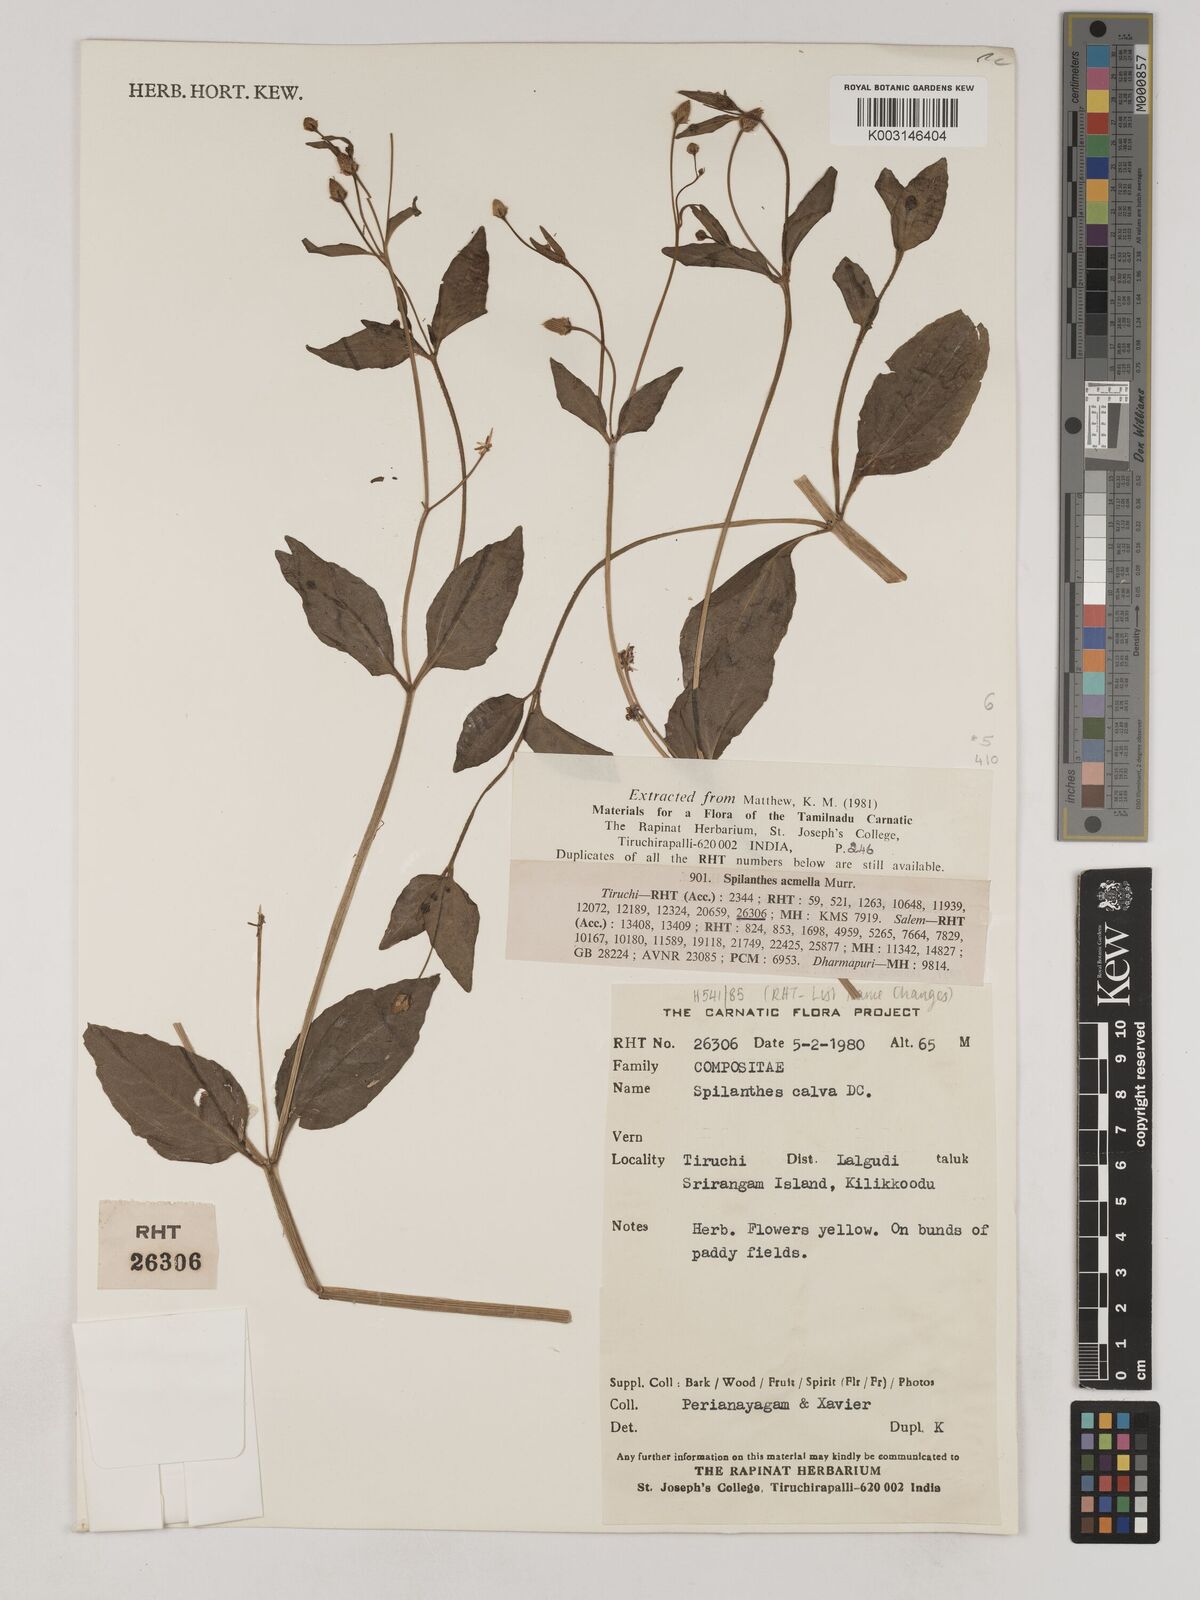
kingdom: Plantae
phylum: Tracheophyta
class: Magnoliopsida
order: Asterales
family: Asteraceae
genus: Acmella
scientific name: Acmella calva
